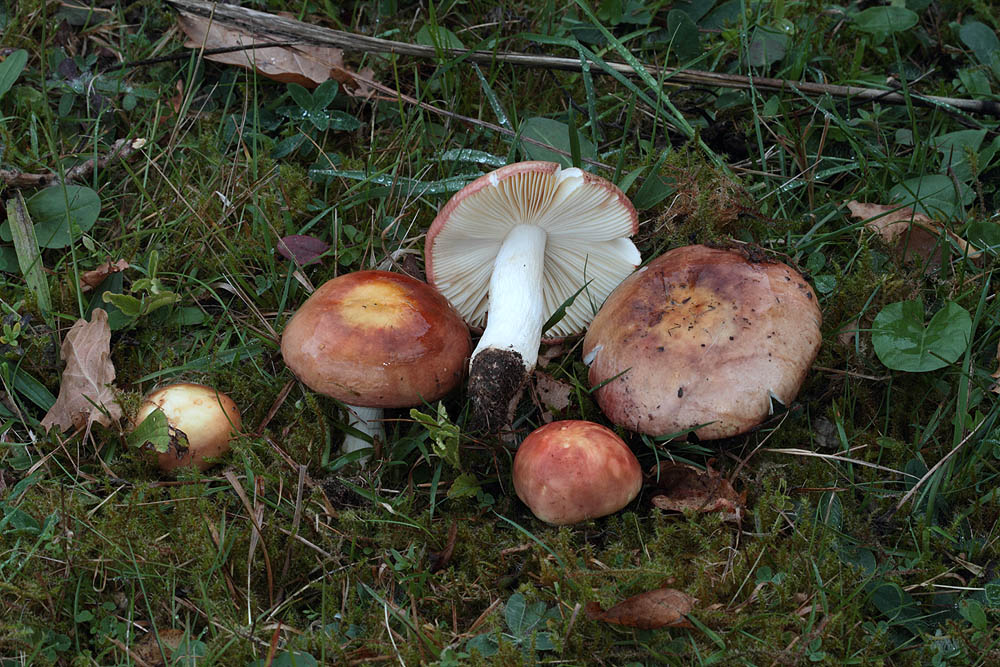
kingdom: Fungi
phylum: Basidiomycota
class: Agaricomycetes
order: Russulales
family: Russulaceae
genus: Russula
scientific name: Russula vesca
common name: spiselig skørhat
